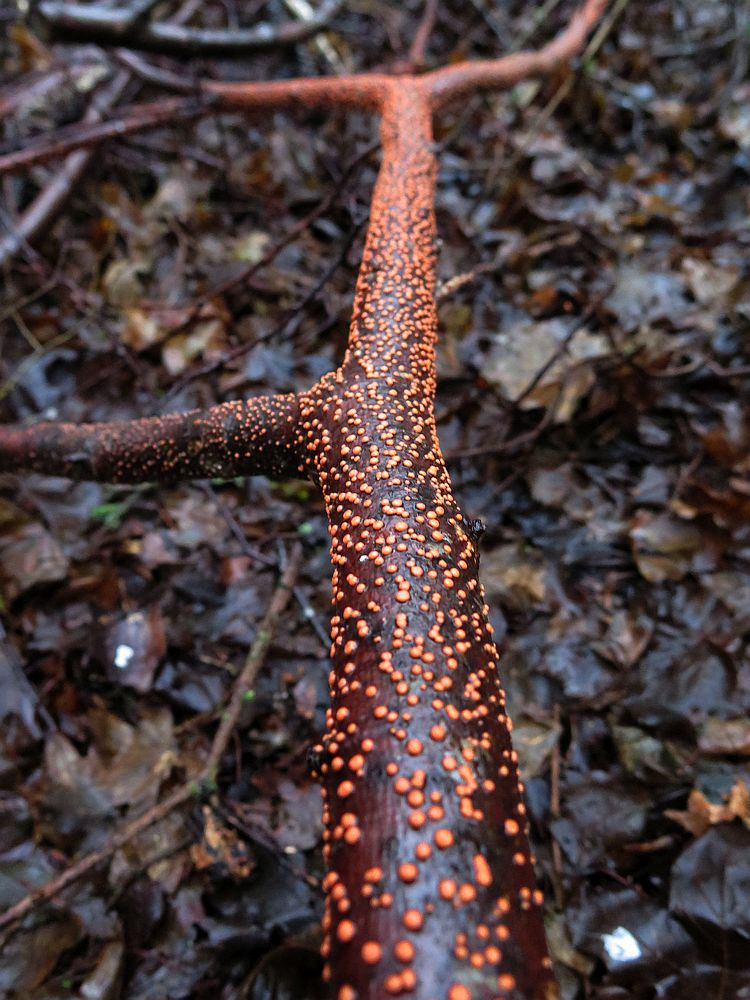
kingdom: Fungi
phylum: Ascomycota
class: Sordariomycetes
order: Hypocreales
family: Nectriaceae
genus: Nectria
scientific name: Nectria cinnabarina
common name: almindelig cinnobersvamp
